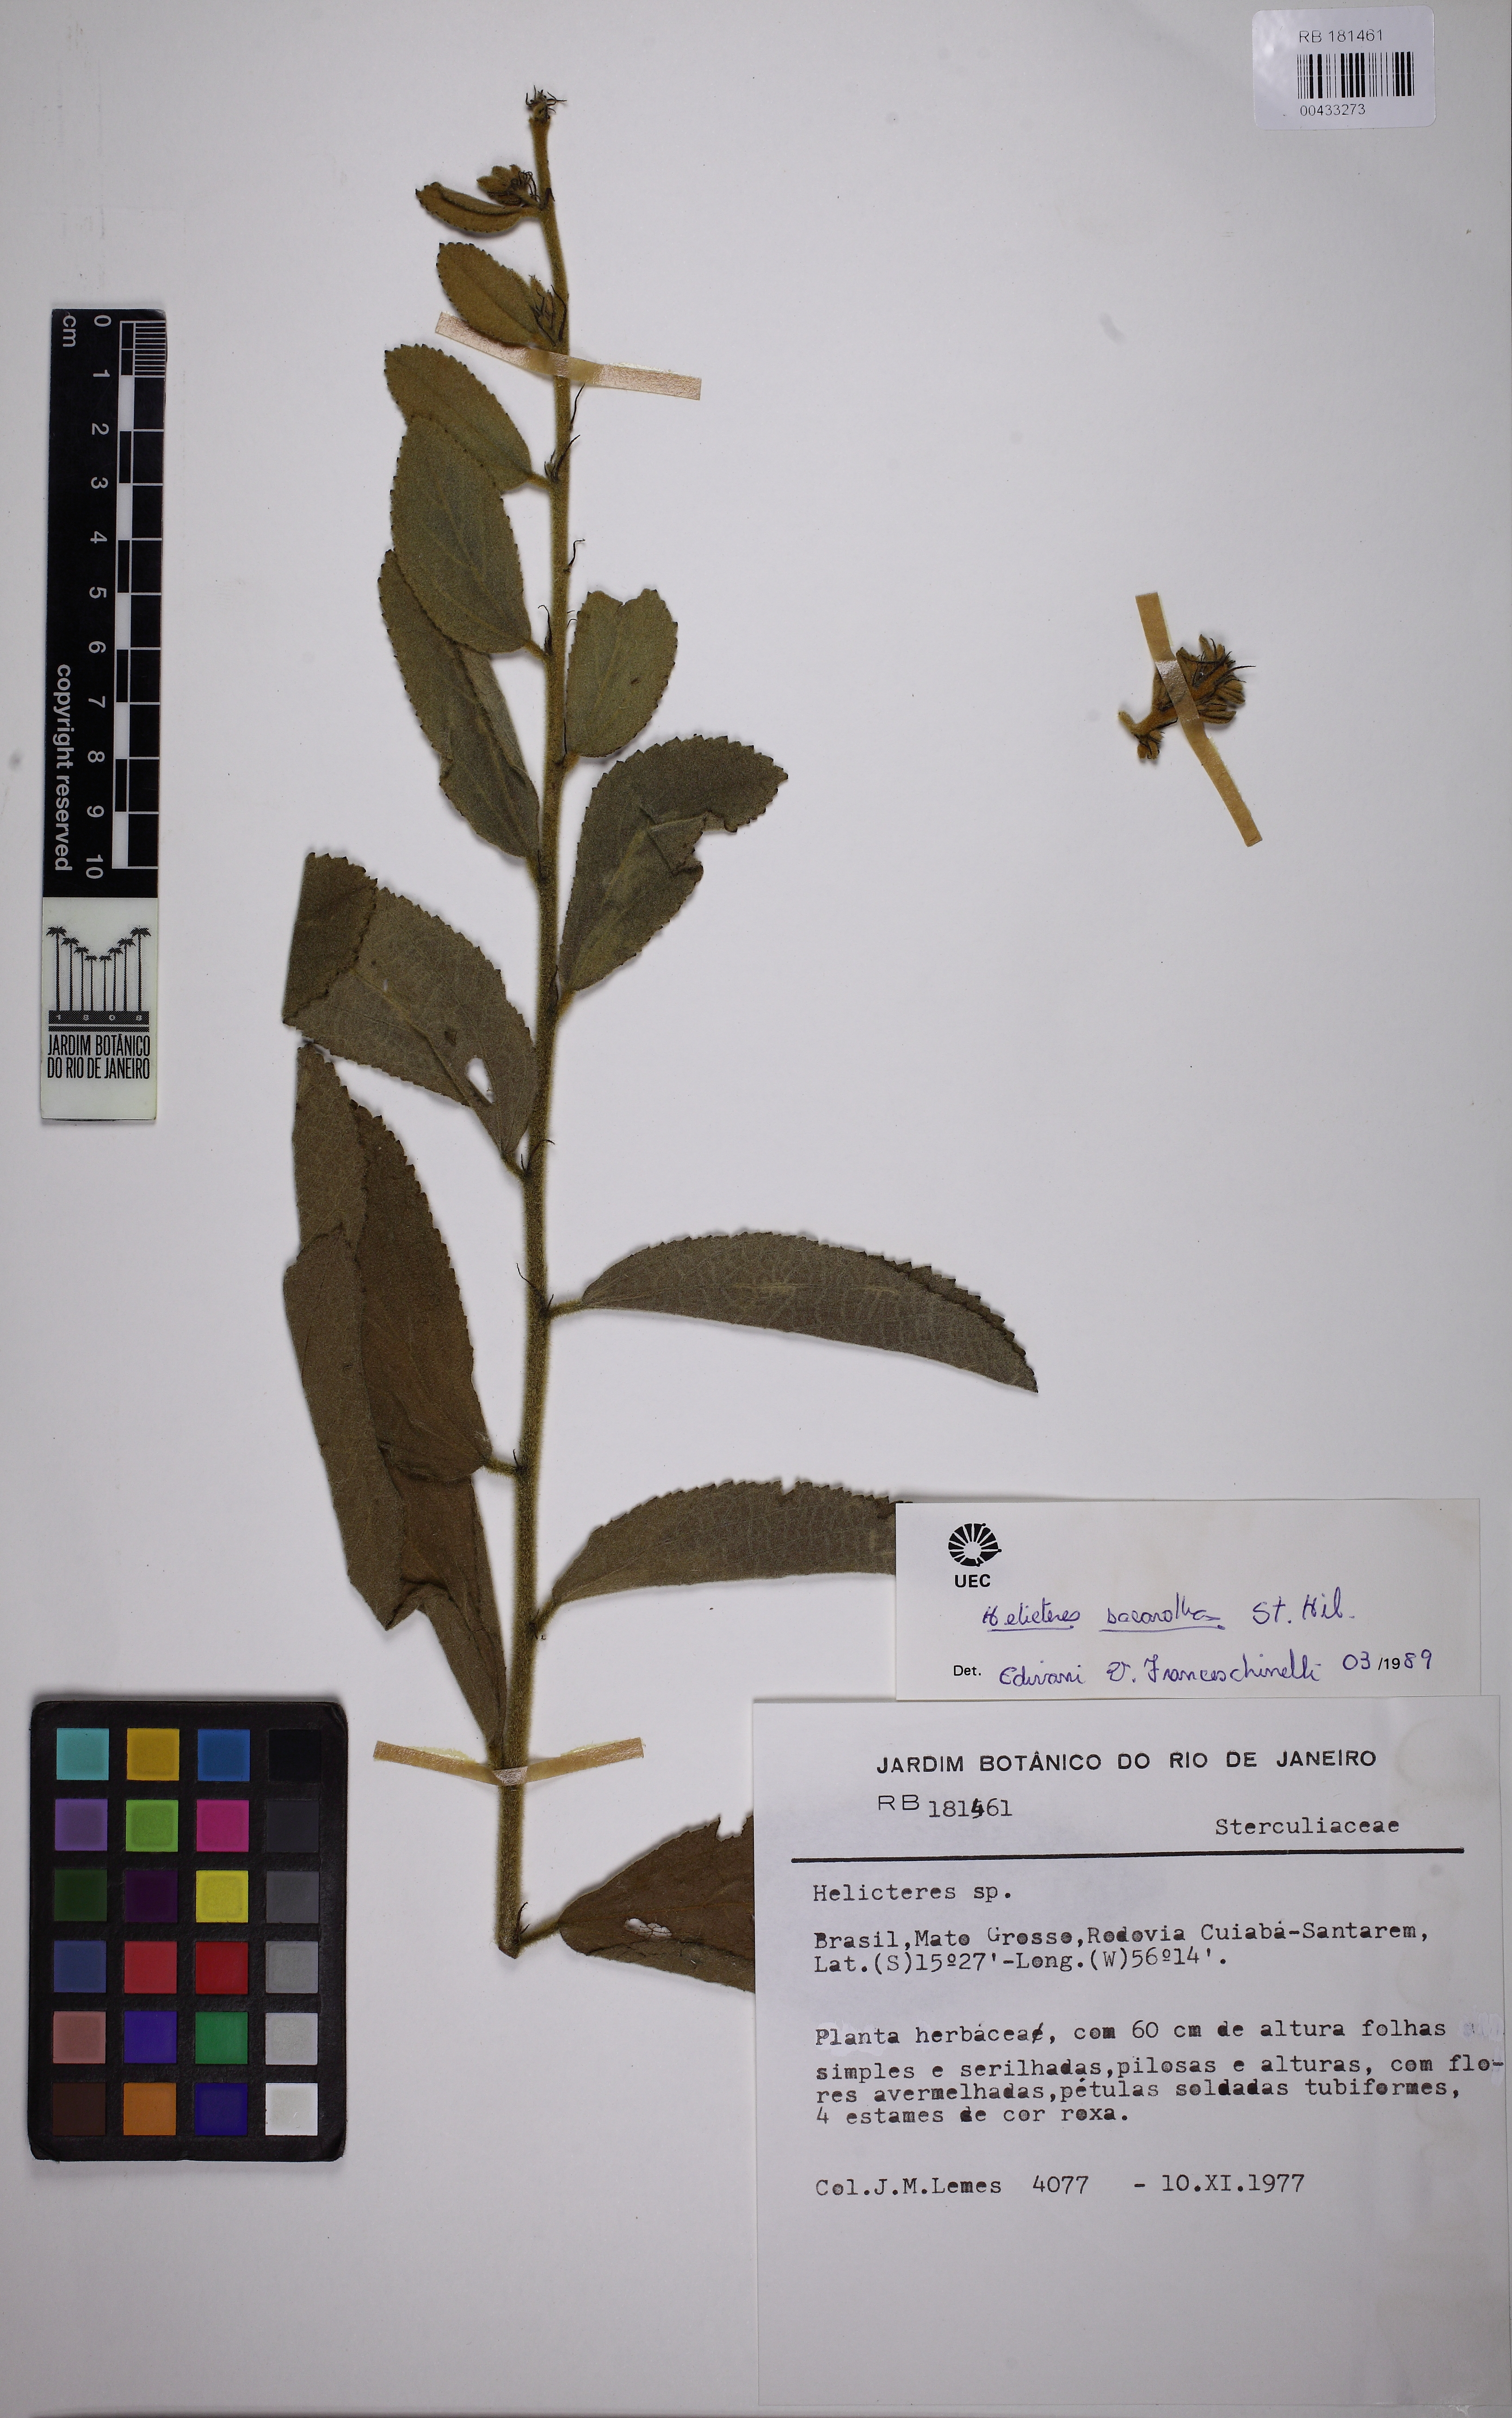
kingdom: Plantae
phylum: Tracheophyta
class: Magnoliopsida
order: Malvales
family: Malvaceae
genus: Helicteres
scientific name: Helicteres sacarolha
